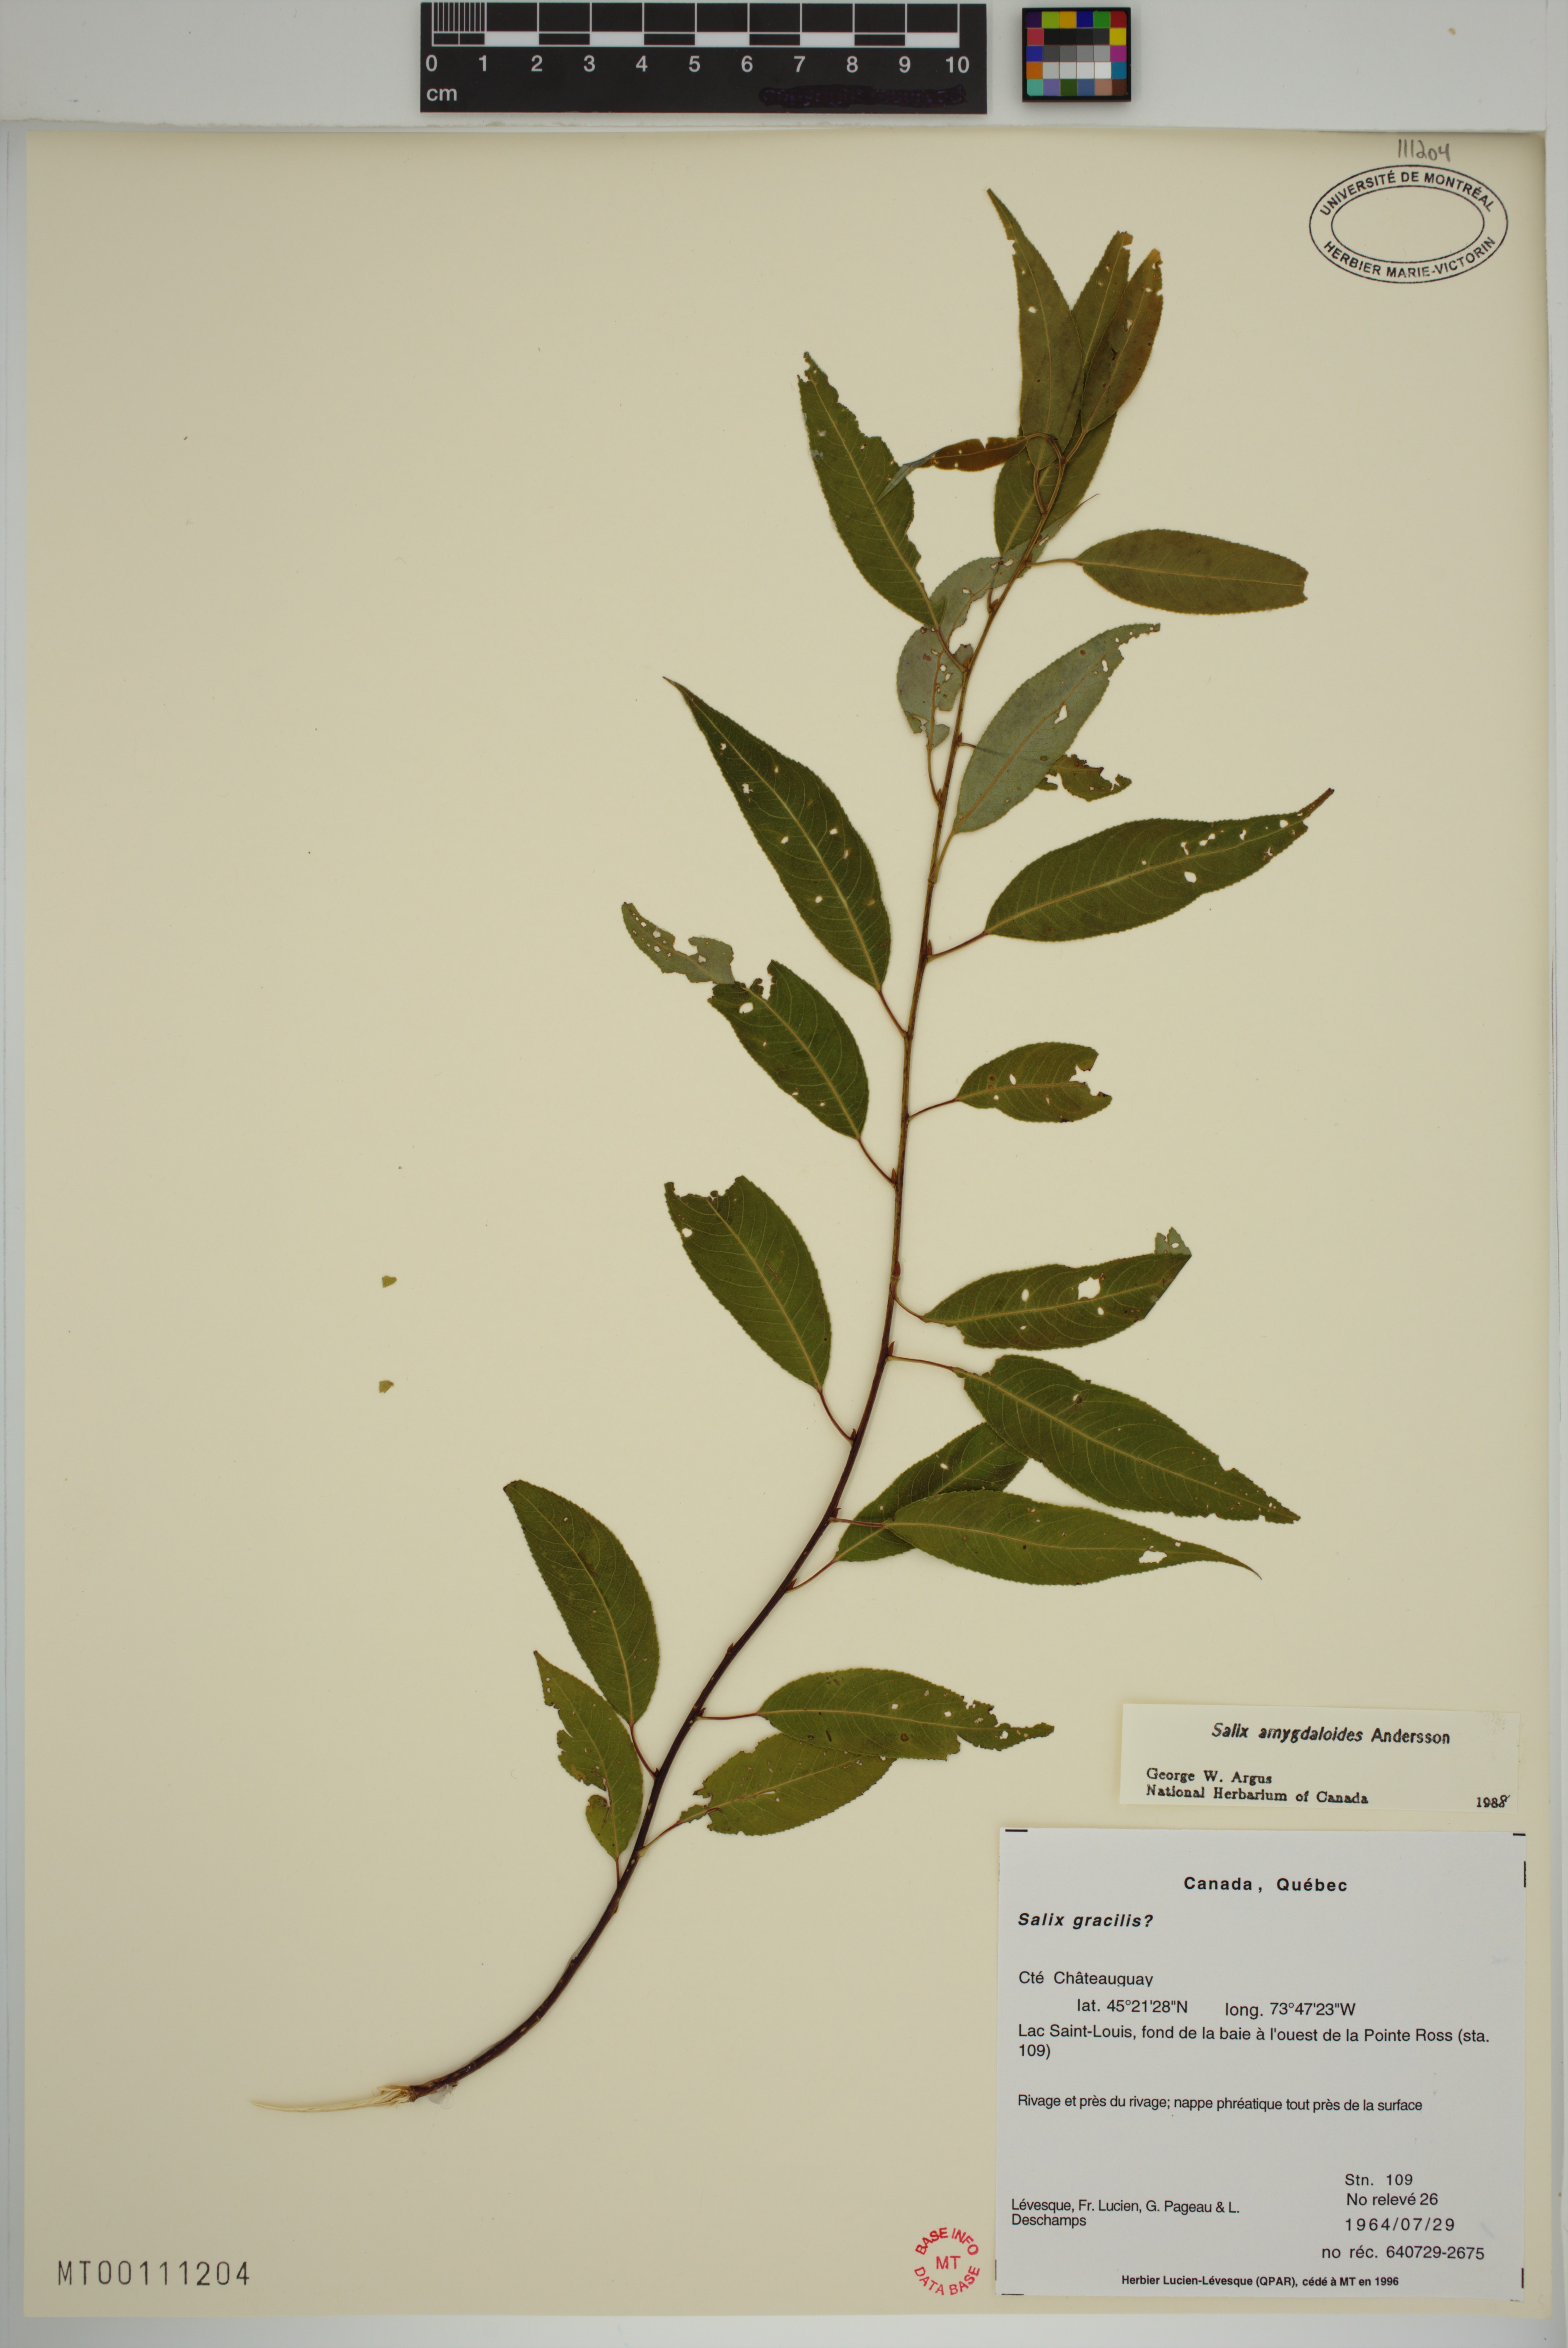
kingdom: Plantae
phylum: Tracheophyta
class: Magnoliopsida
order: Malpighiales
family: Salicaceae
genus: Salix
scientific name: Salix amygdaloides
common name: Peach leaf willow
